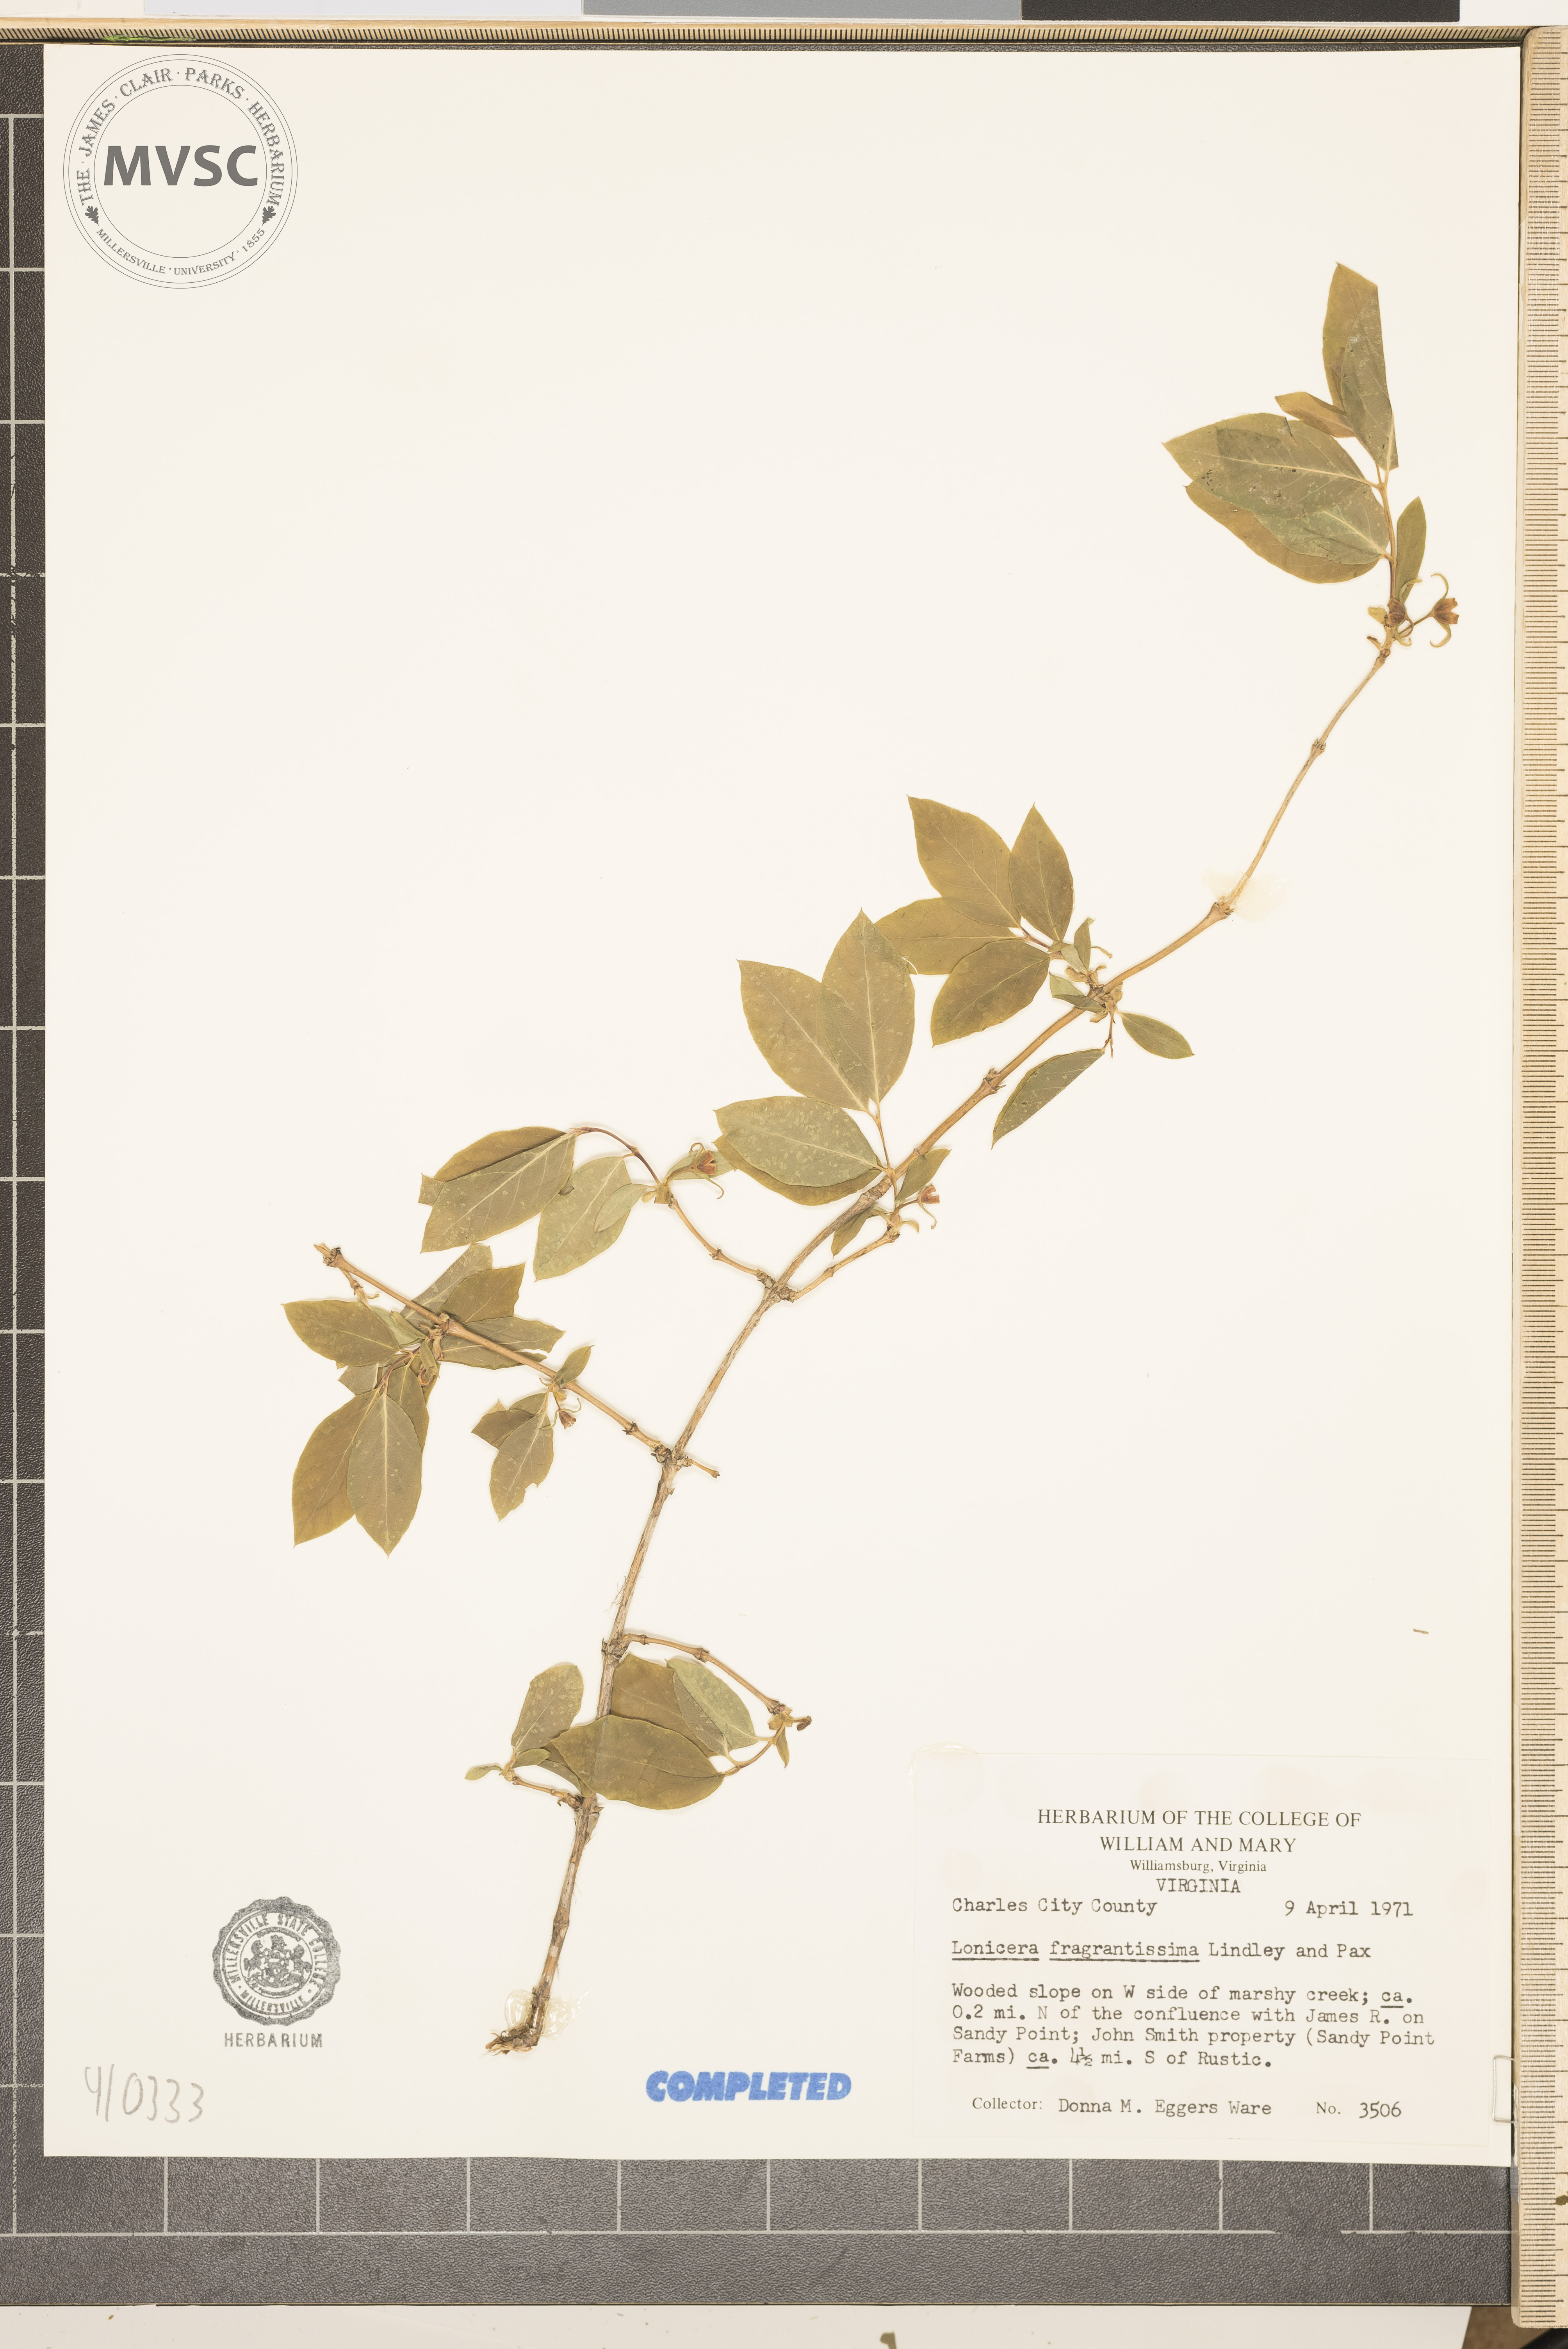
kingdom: Plantae
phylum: Tracheophyta
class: Magnoliopsida
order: Dipsacales
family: Caprifoliaceae
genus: Lonicera
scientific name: Lonicera fragrantissima
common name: Fragrant honeysuckle
